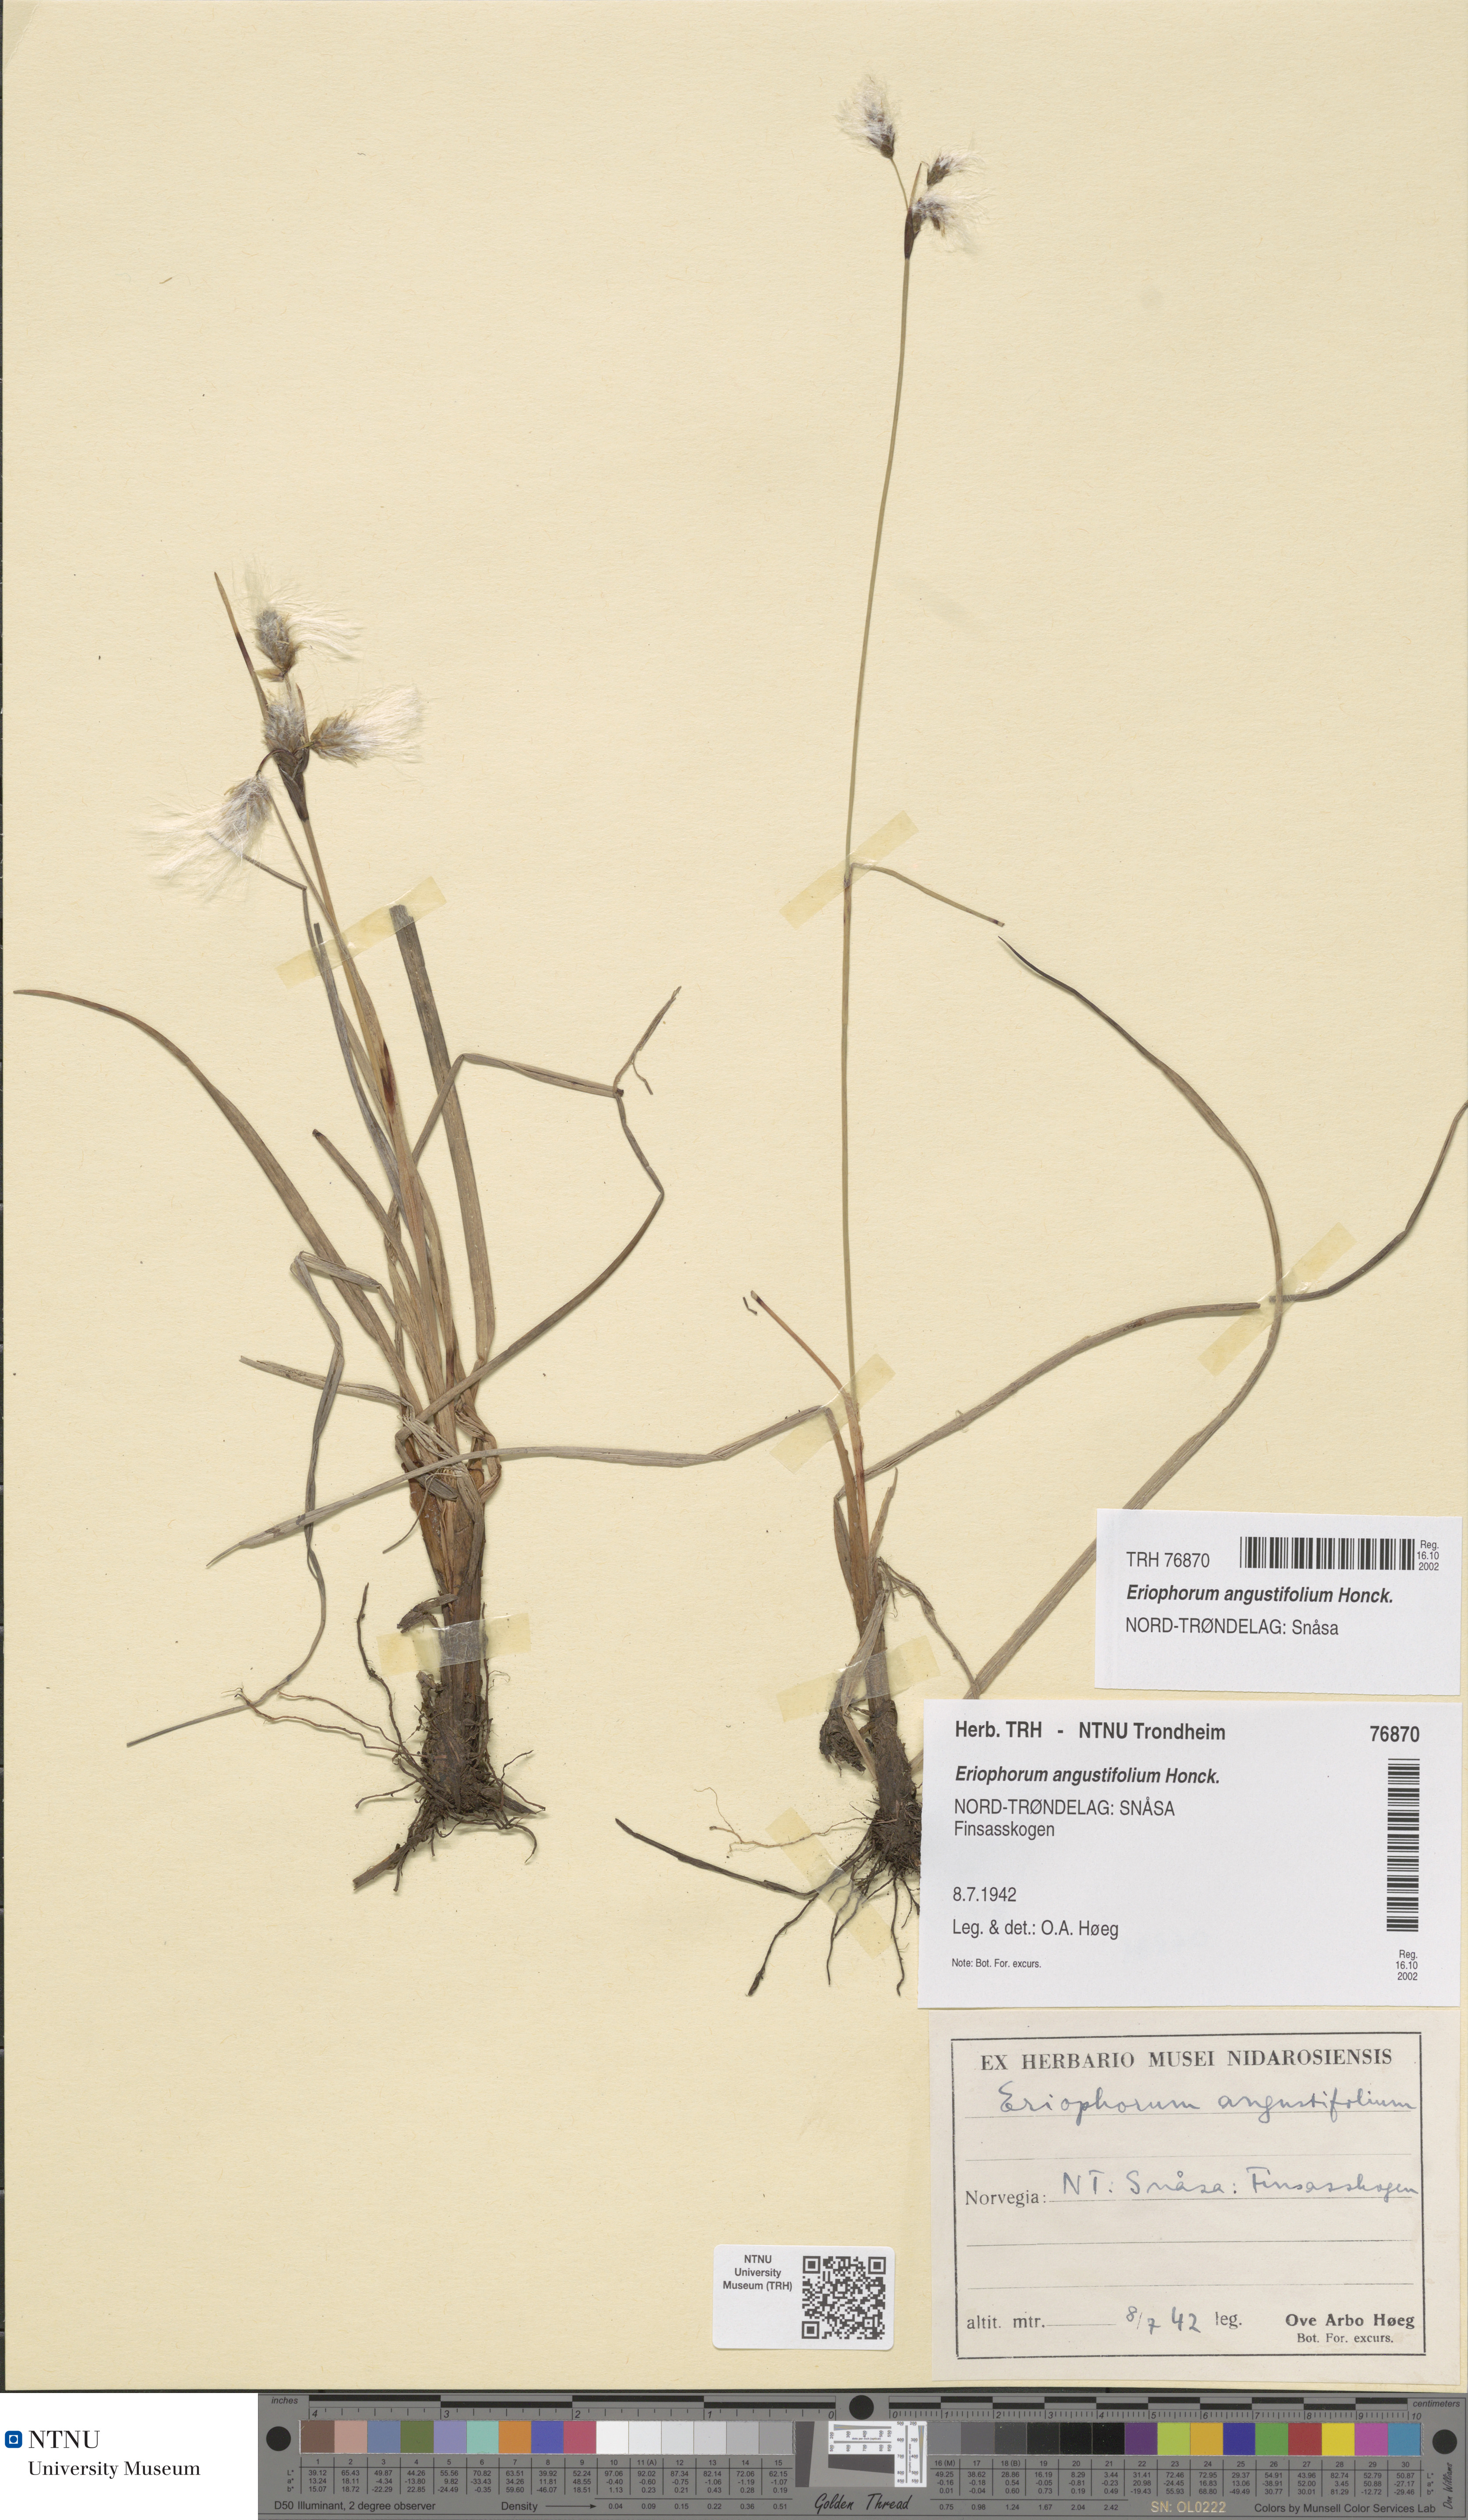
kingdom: Plantae
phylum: Tracheophyta
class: Liliopsida
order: Poales
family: Cyperaceae
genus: Eriophorum
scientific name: Eriophorum angustifolium
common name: Common cottongrass
